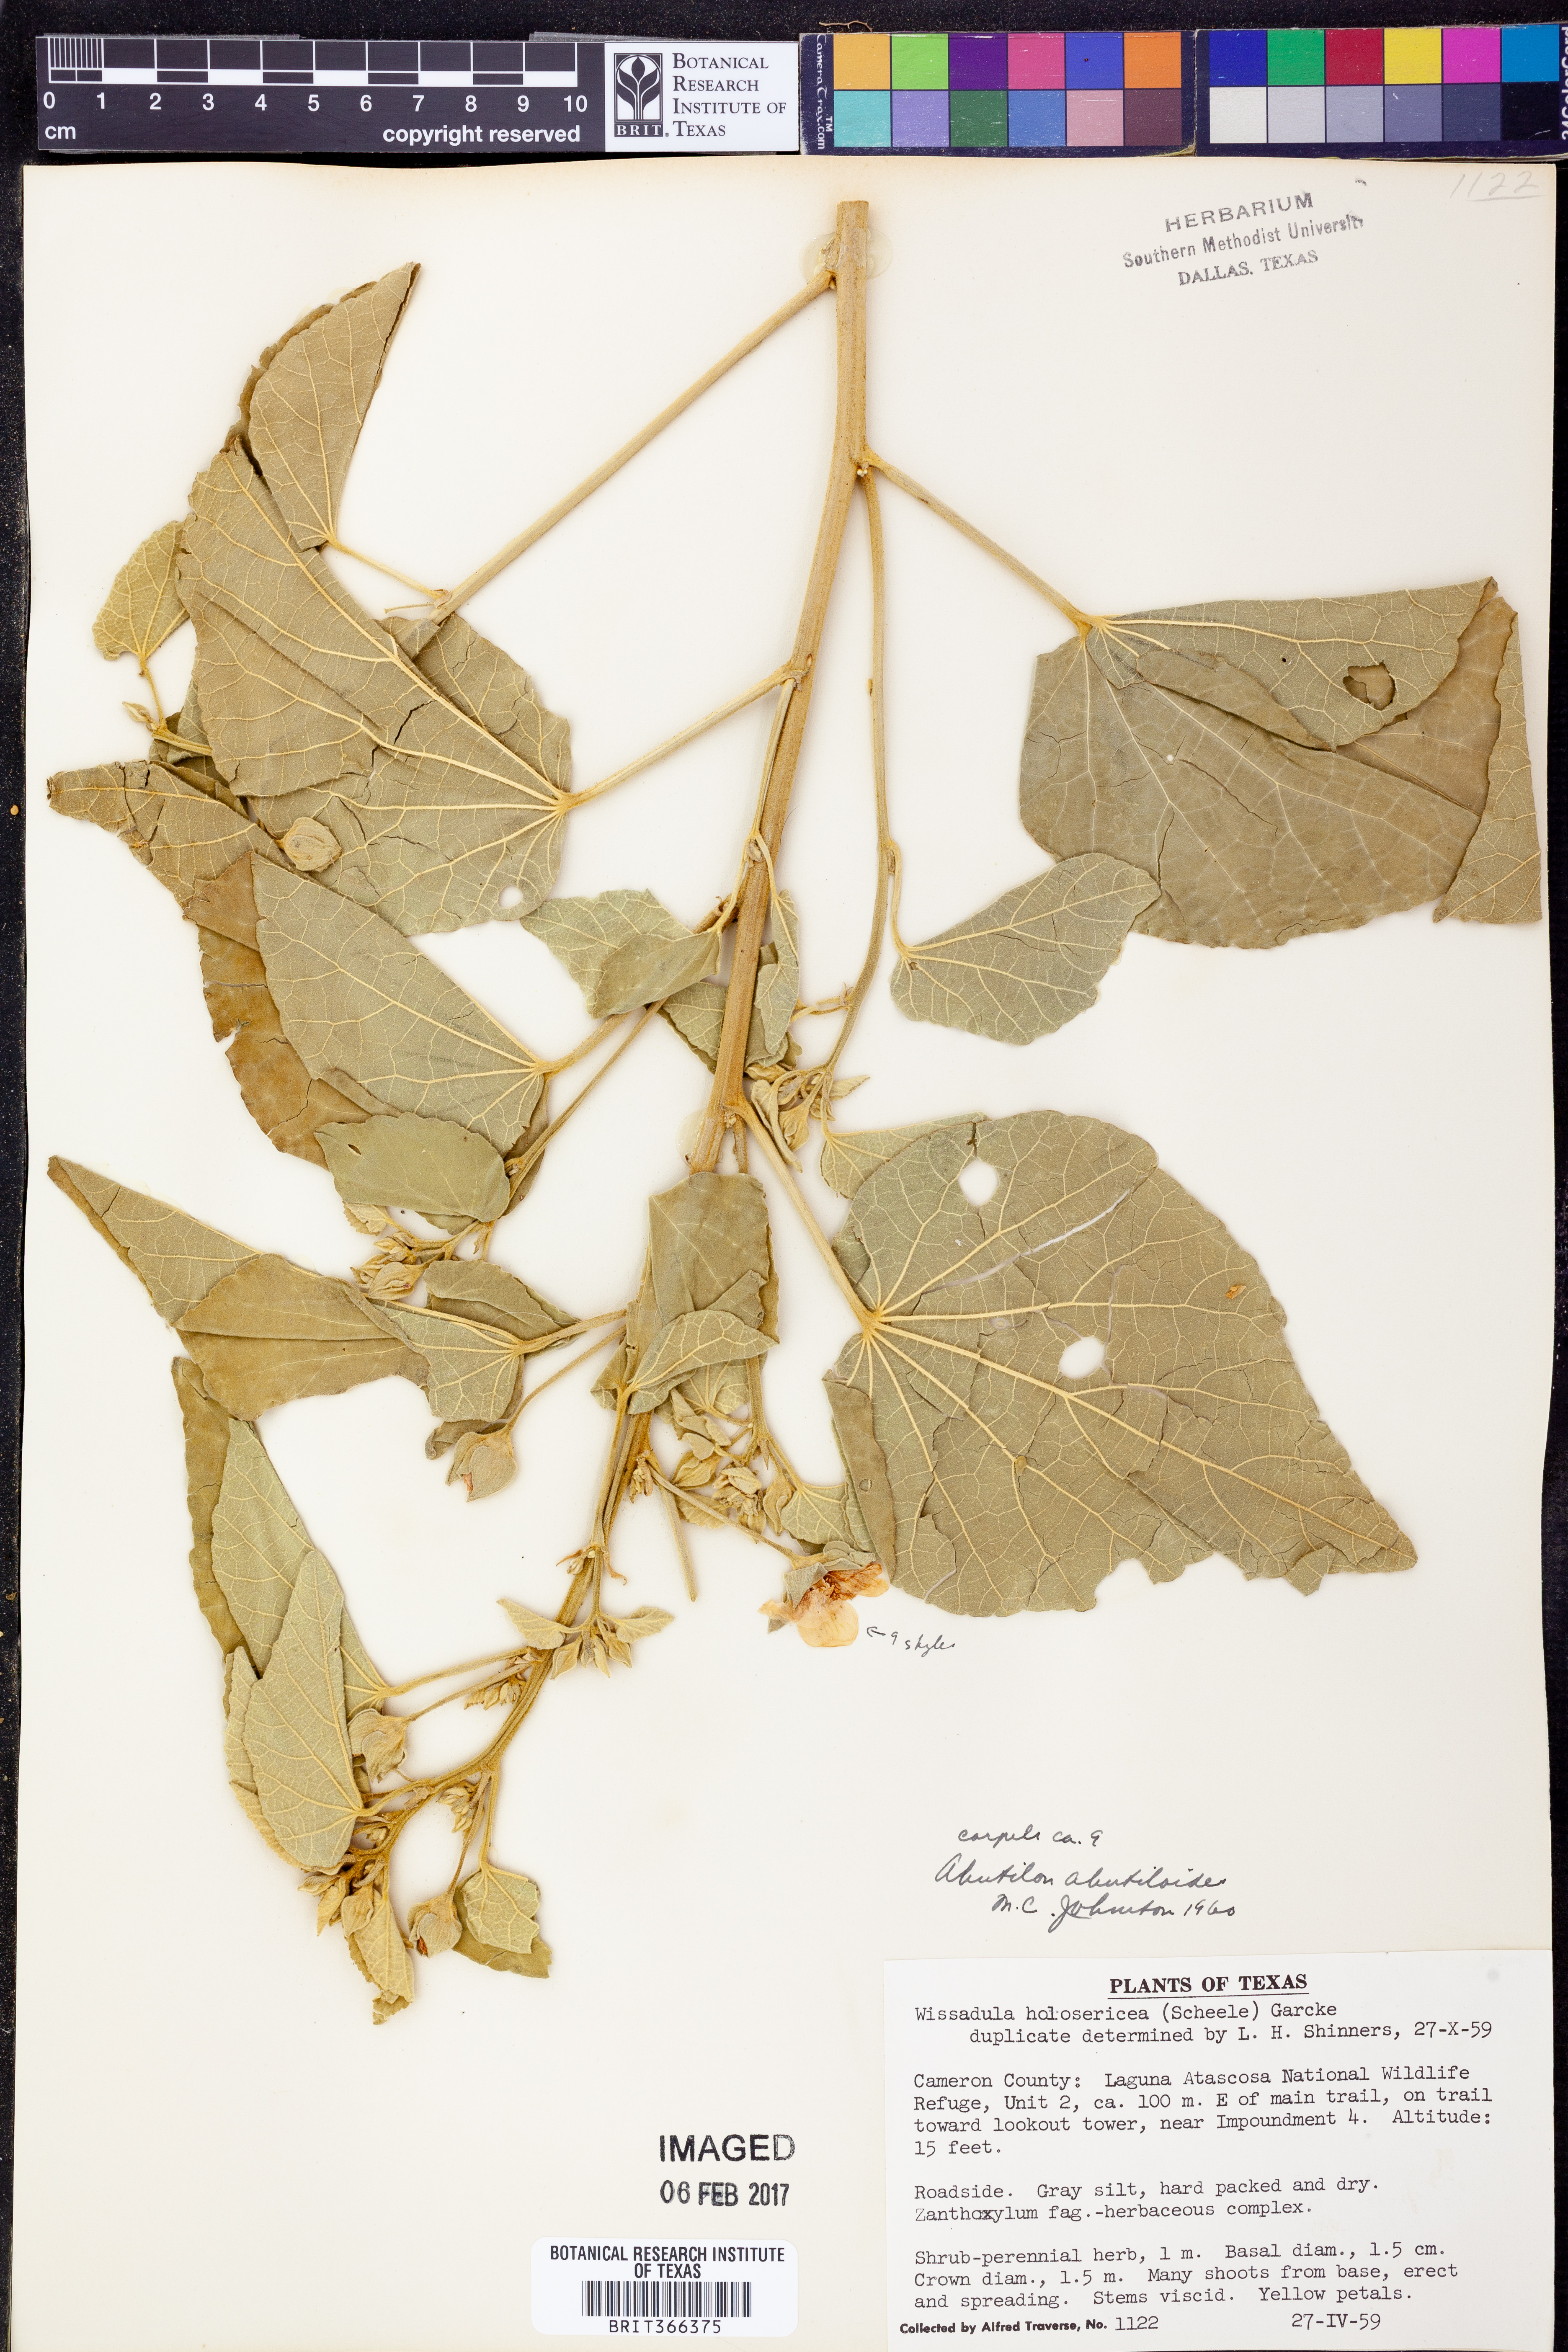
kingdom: Plantae
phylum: Tracheophyta
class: Magnoliopsida
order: Malvales
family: Malvaceae
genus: Abutilon
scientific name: Abutilon abutiloides
